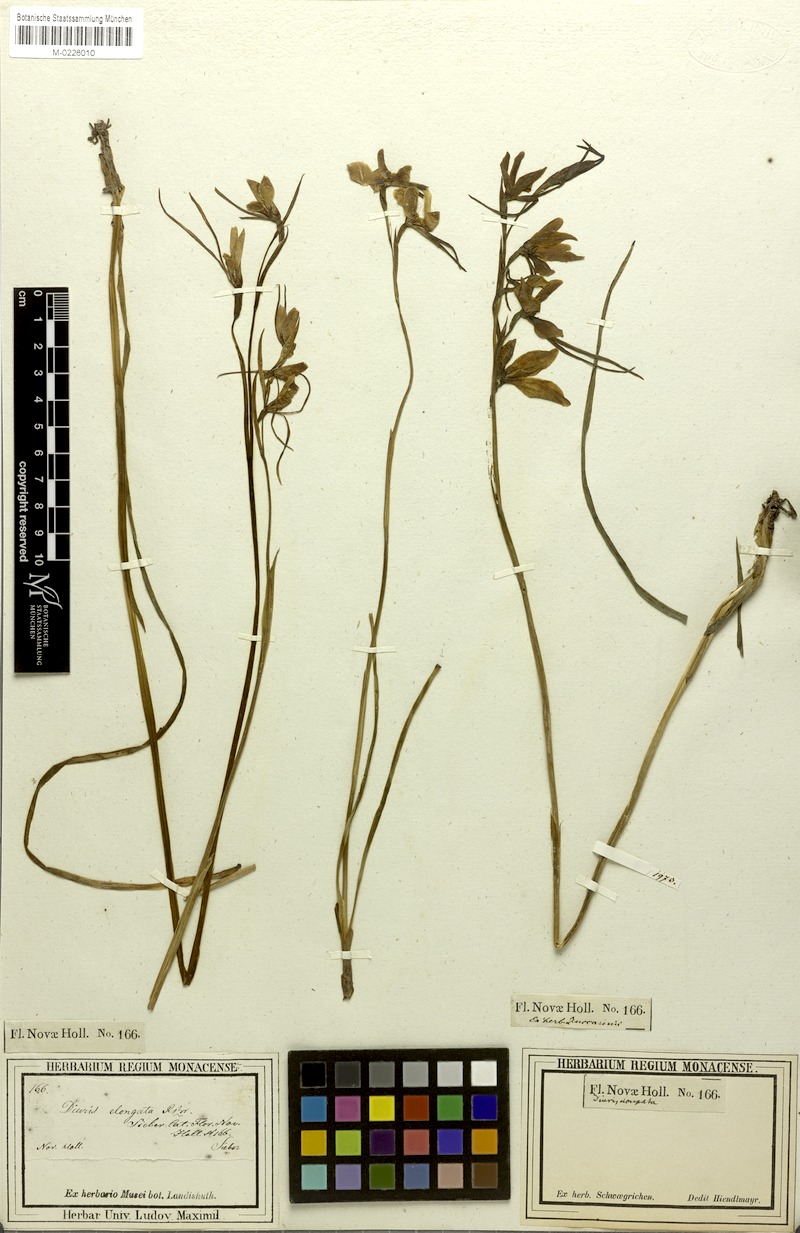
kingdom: Plantae
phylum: Tracheophyta
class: Liliopsida
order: Asparagales
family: Orchidaceae
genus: Diuris
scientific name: Diuris punctata
